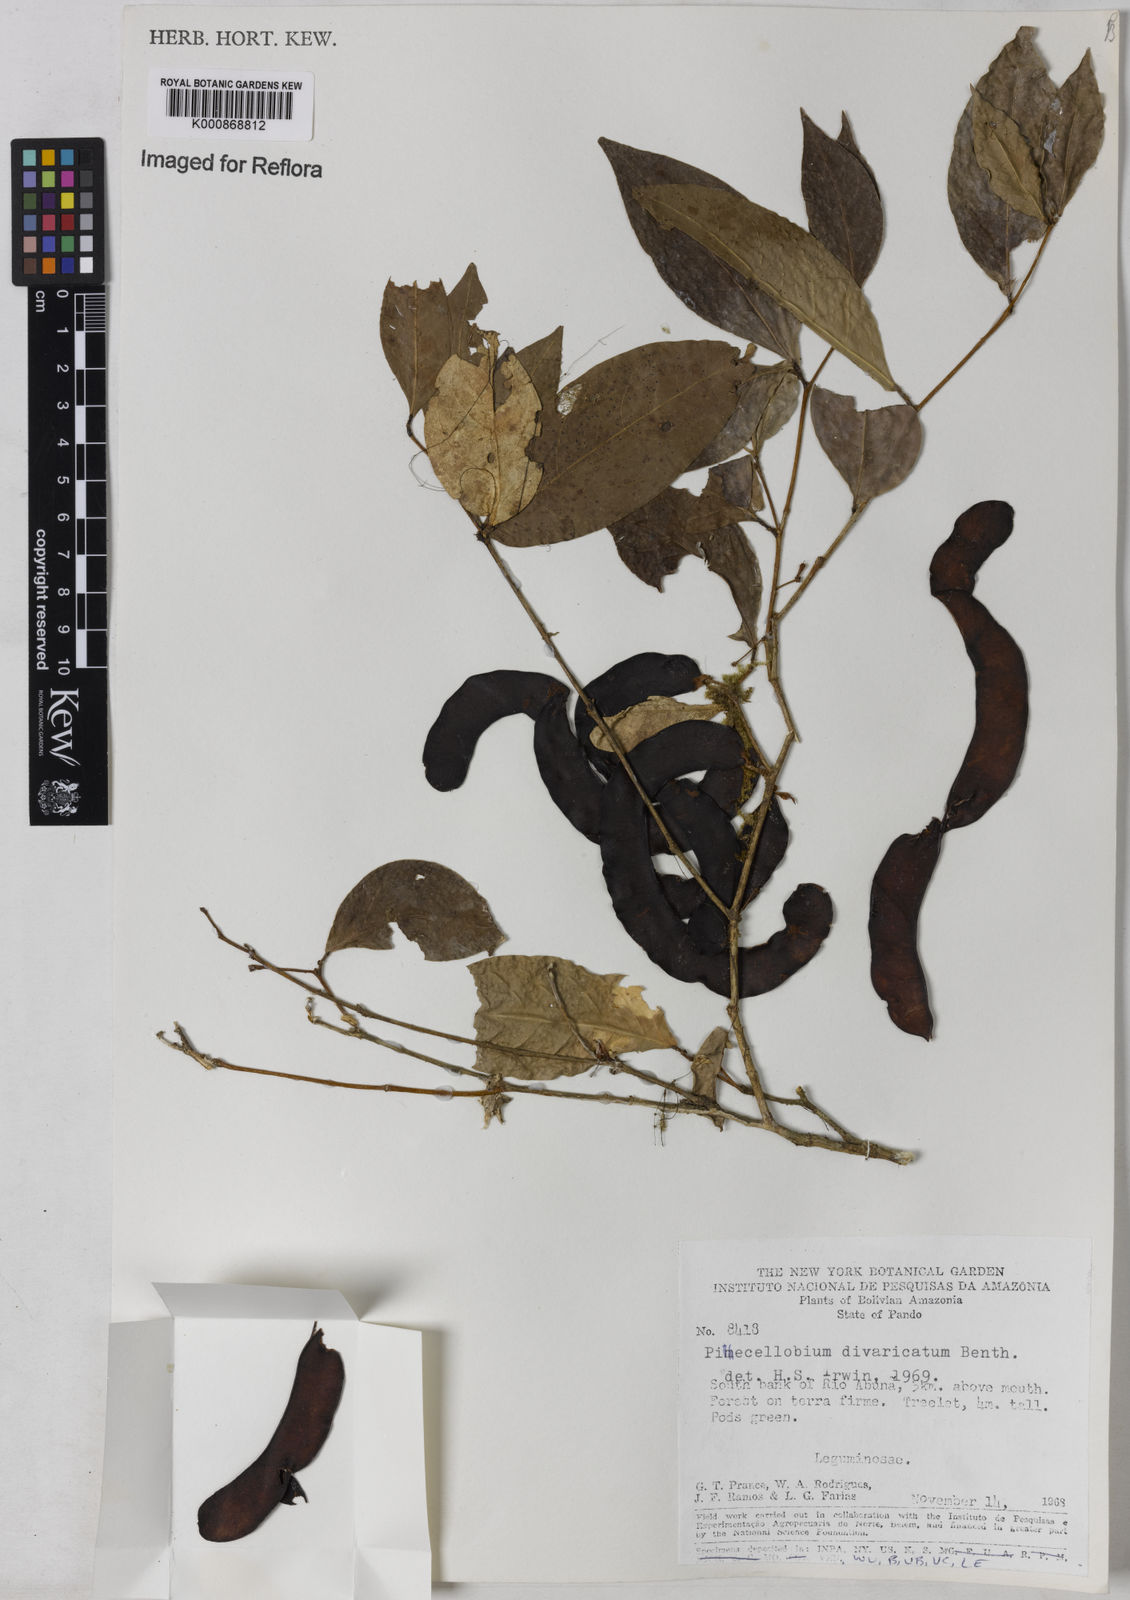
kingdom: Plantae
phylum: Tracheophyta
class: Magnoliopsida
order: Fabales
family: Fabaceae
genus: Zygia
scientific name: Zygia cataractae
